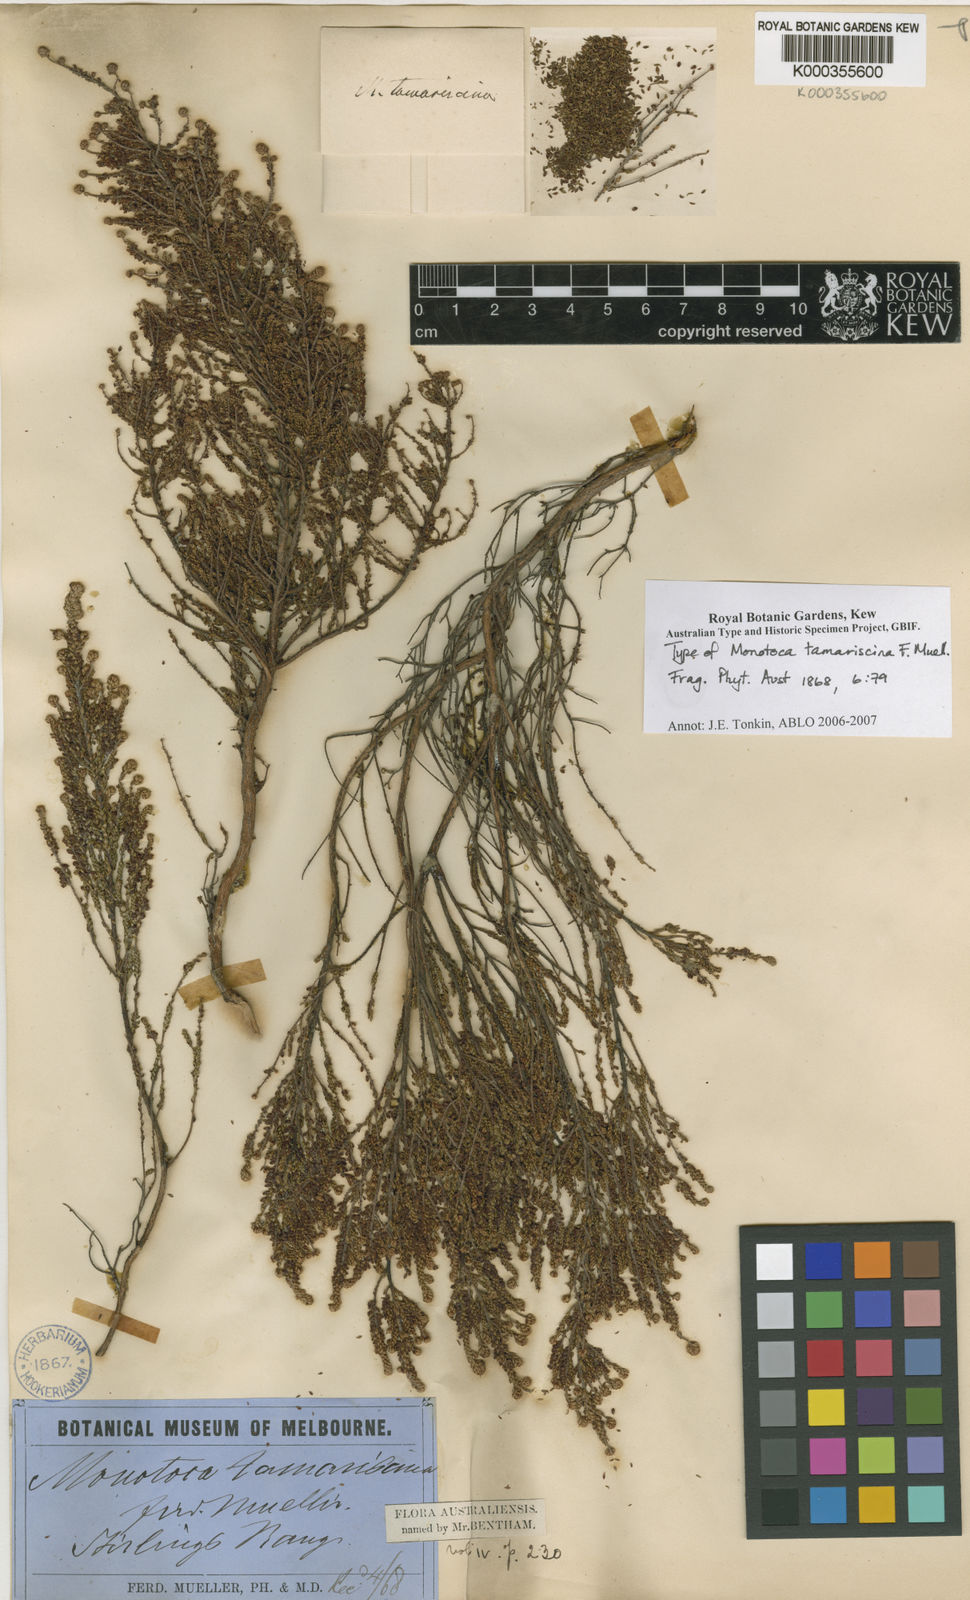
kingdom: Plantae
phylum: Tracheophyta
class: Magnoliopsida
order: Ericales
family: Ericaceae
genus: Dielsiodoxa
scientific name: Dielsiodoxa tamariscina
